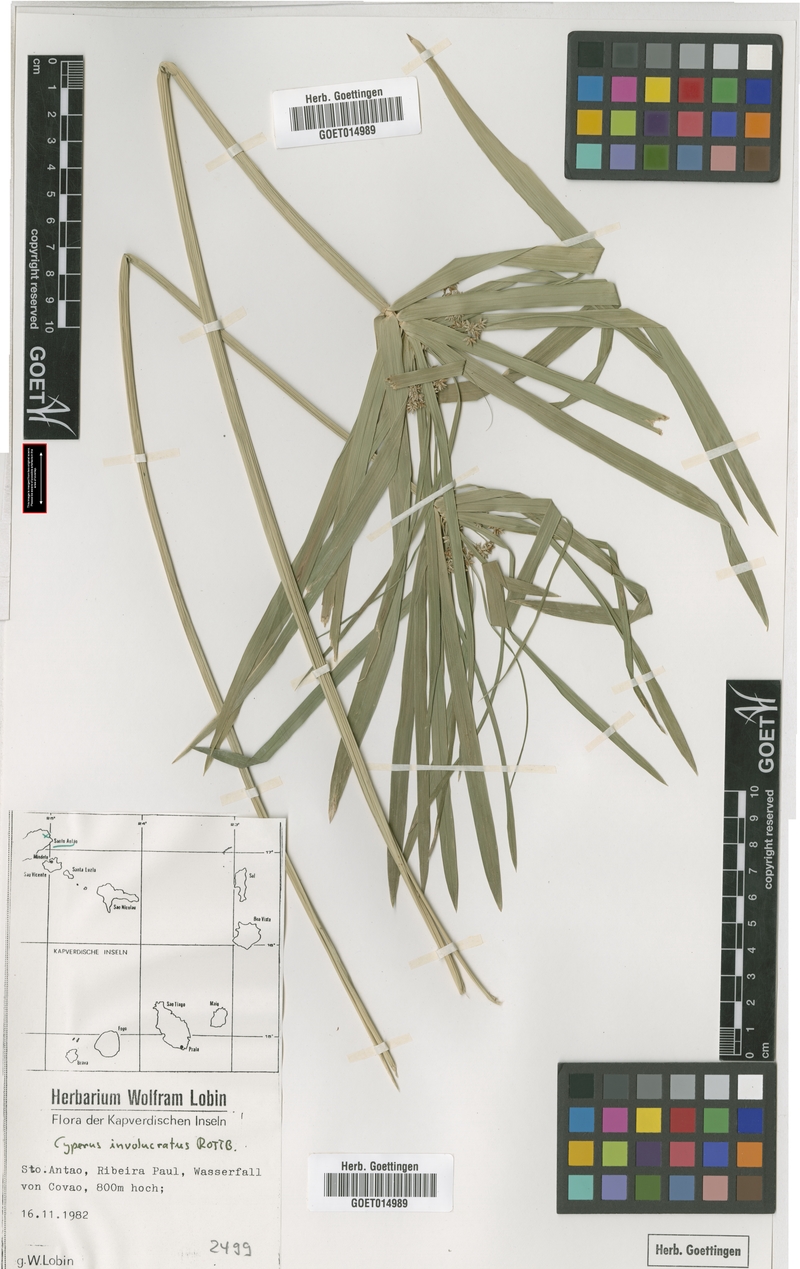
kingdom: Plantae
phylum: Tracheophyta
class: Liliopsida
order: Poales
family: Cyperaceae
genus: Cyperus
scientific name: Cyperus alternifolius
